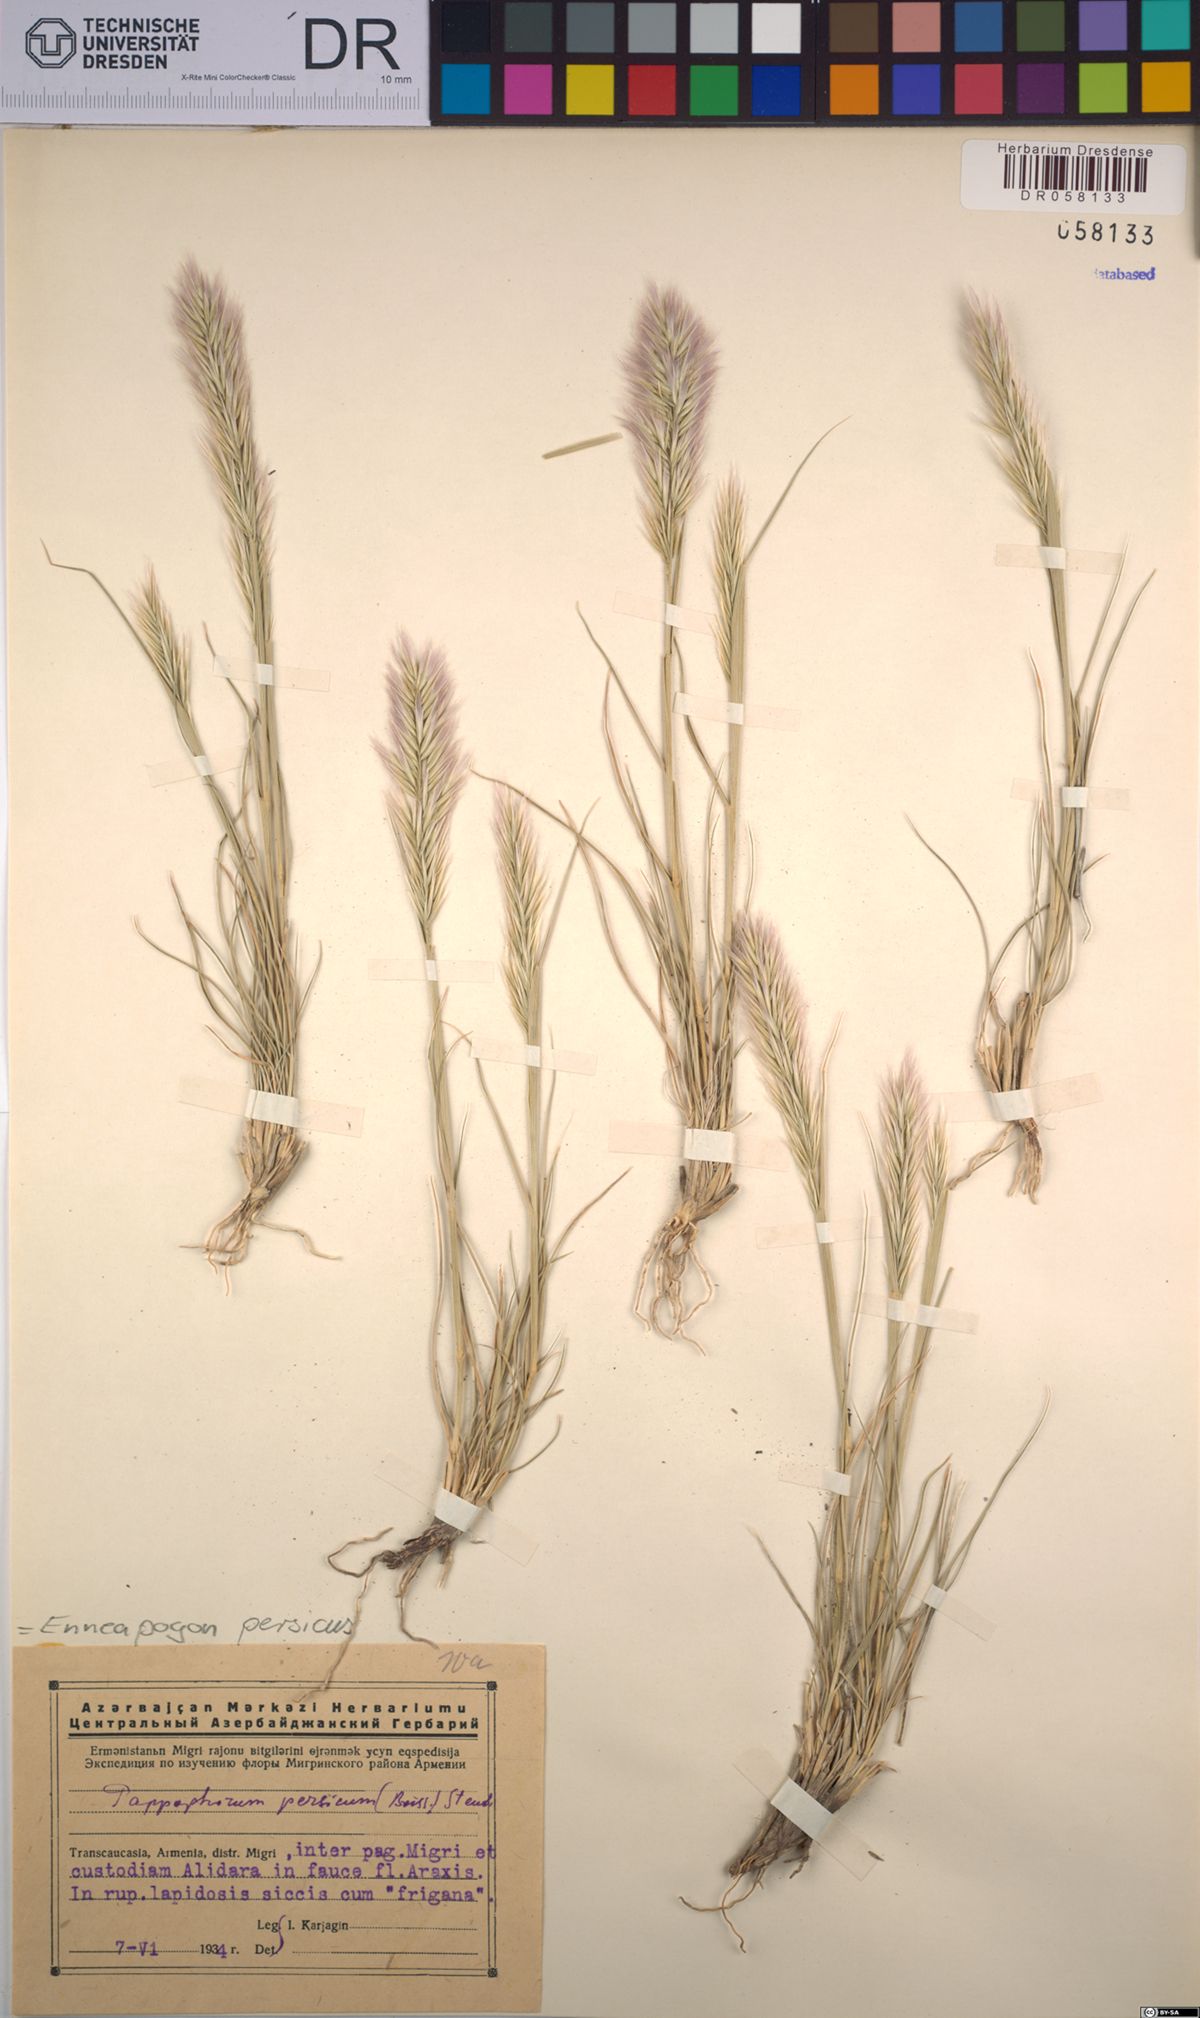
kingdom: Plantae
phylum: Tracheophyta
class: Liliopsida
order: Poales
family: Poaceae
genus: Enneapogon
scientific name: Enneapogon persicus
